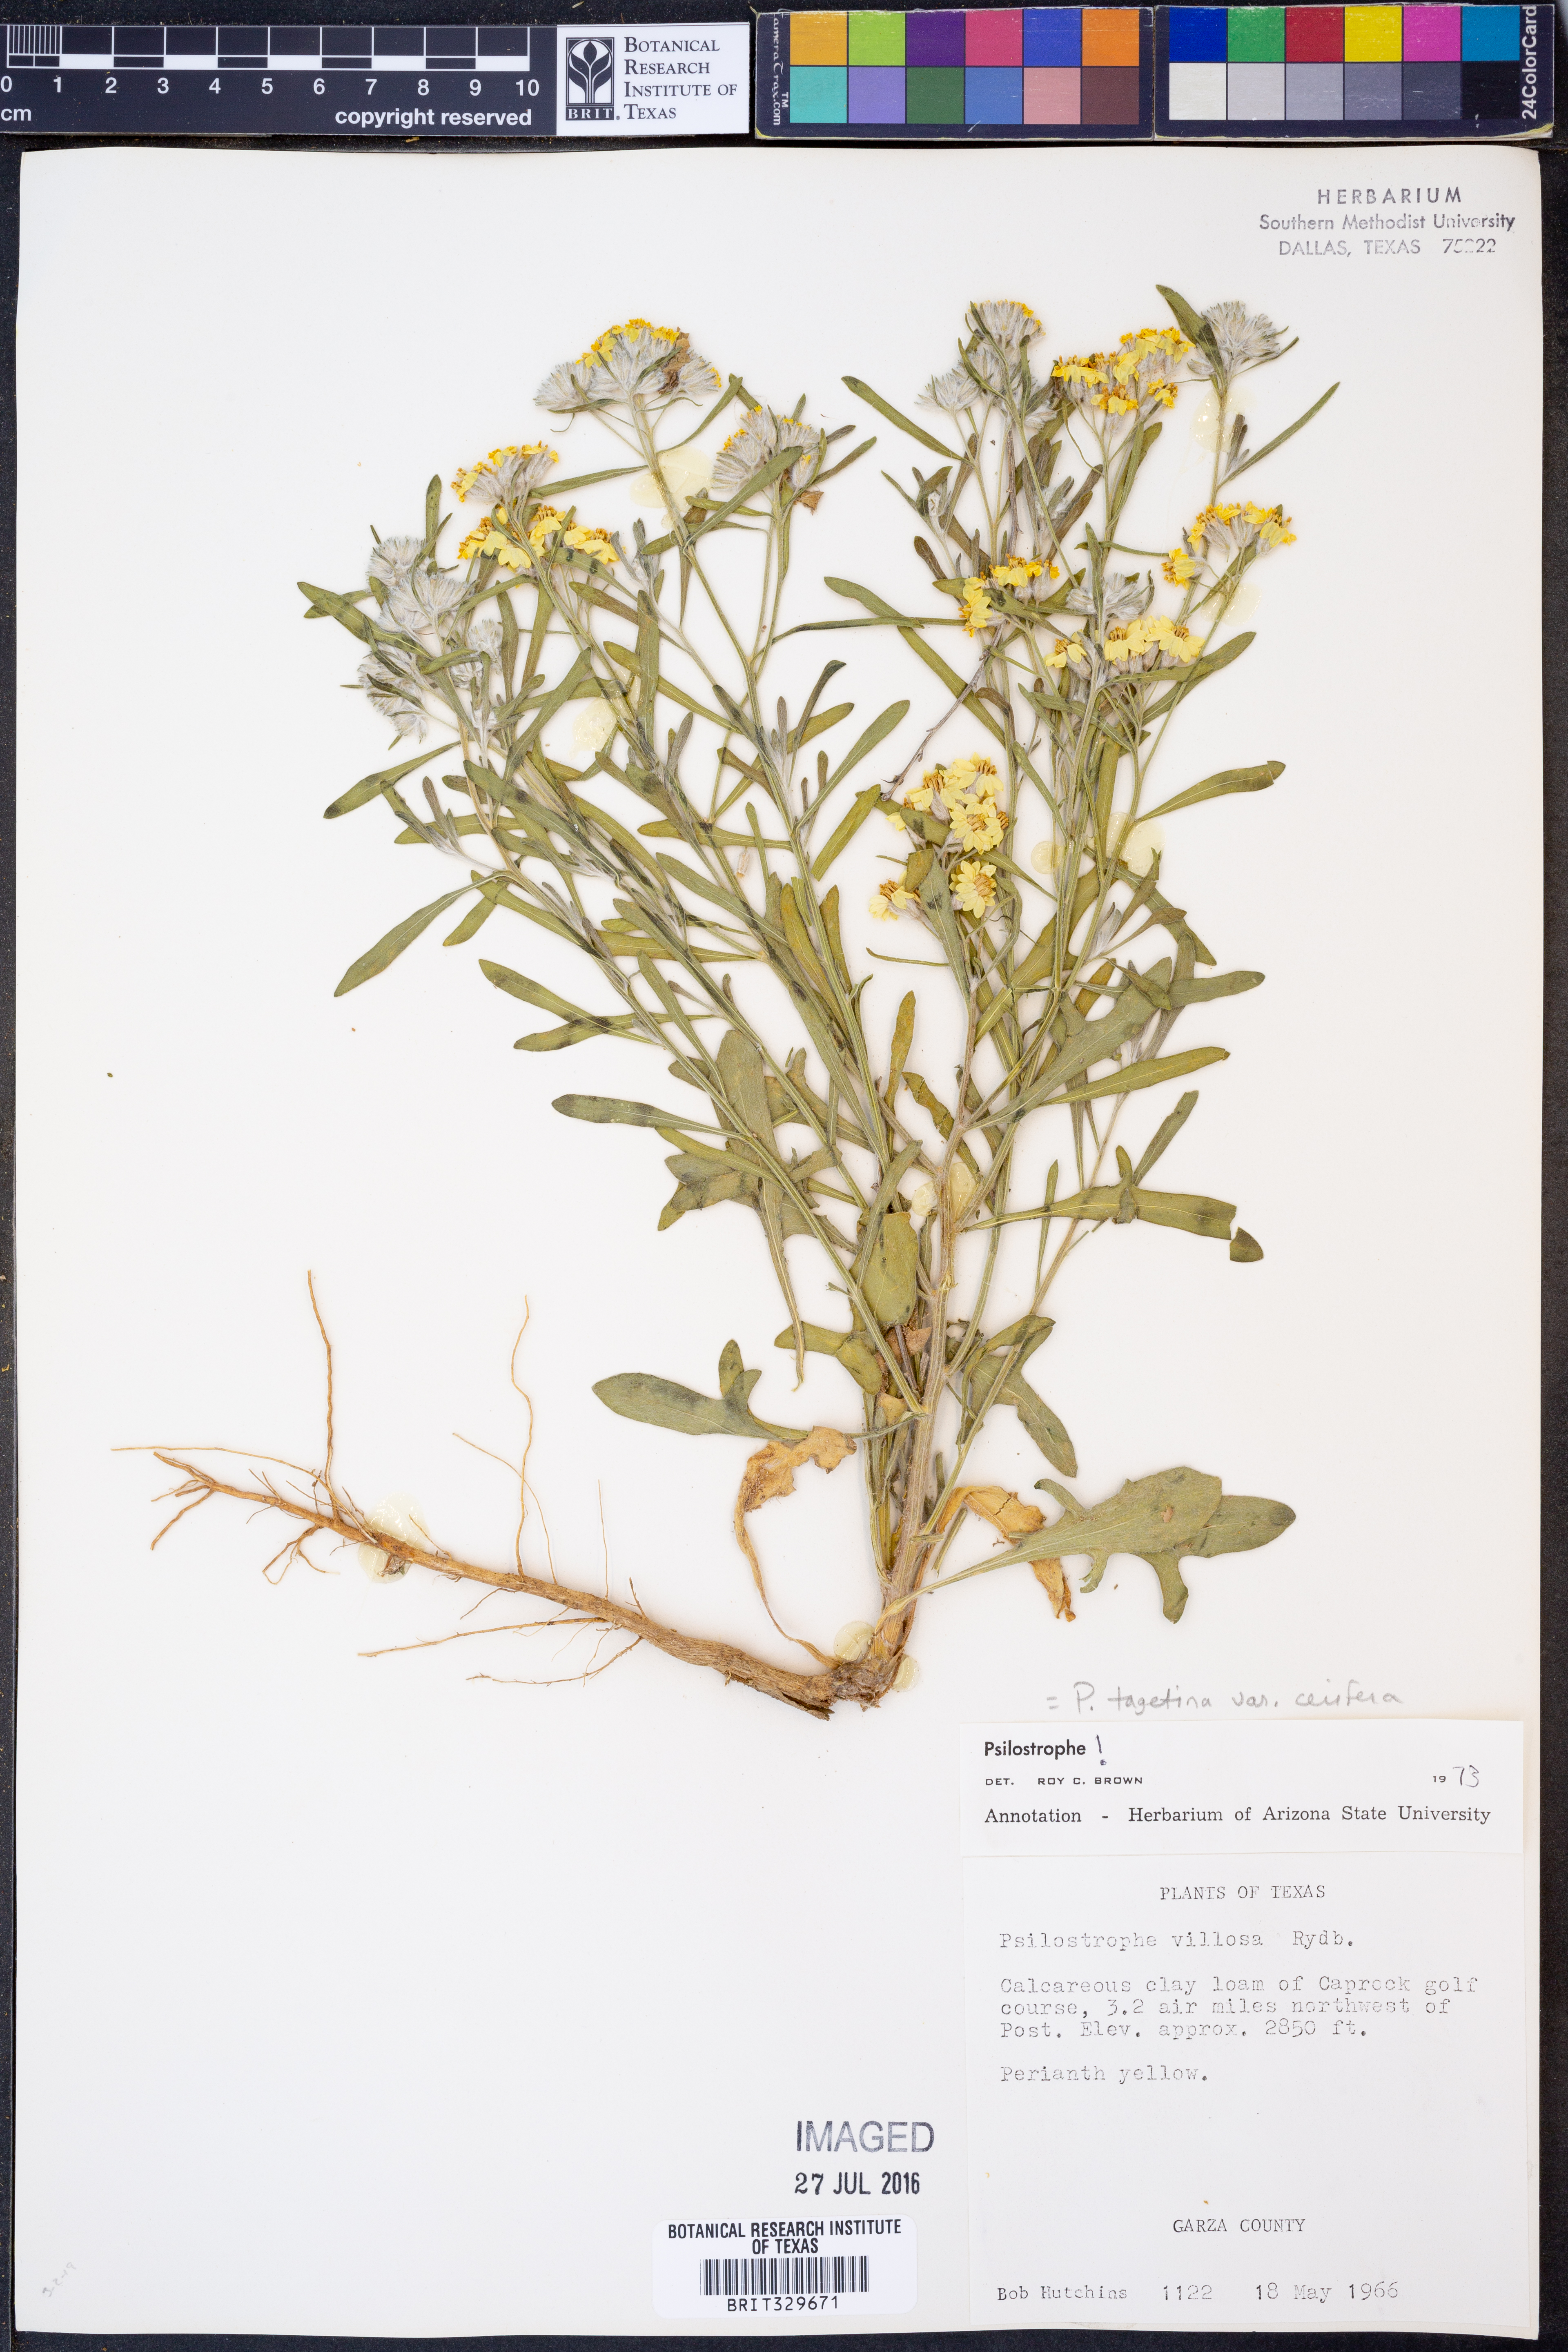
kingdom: Plantae
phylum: Tracheophyta
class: Magnoliopsida
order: Asterales
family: Asteraceae
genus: Psilostrophe
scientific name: Psilostrophe villosa
